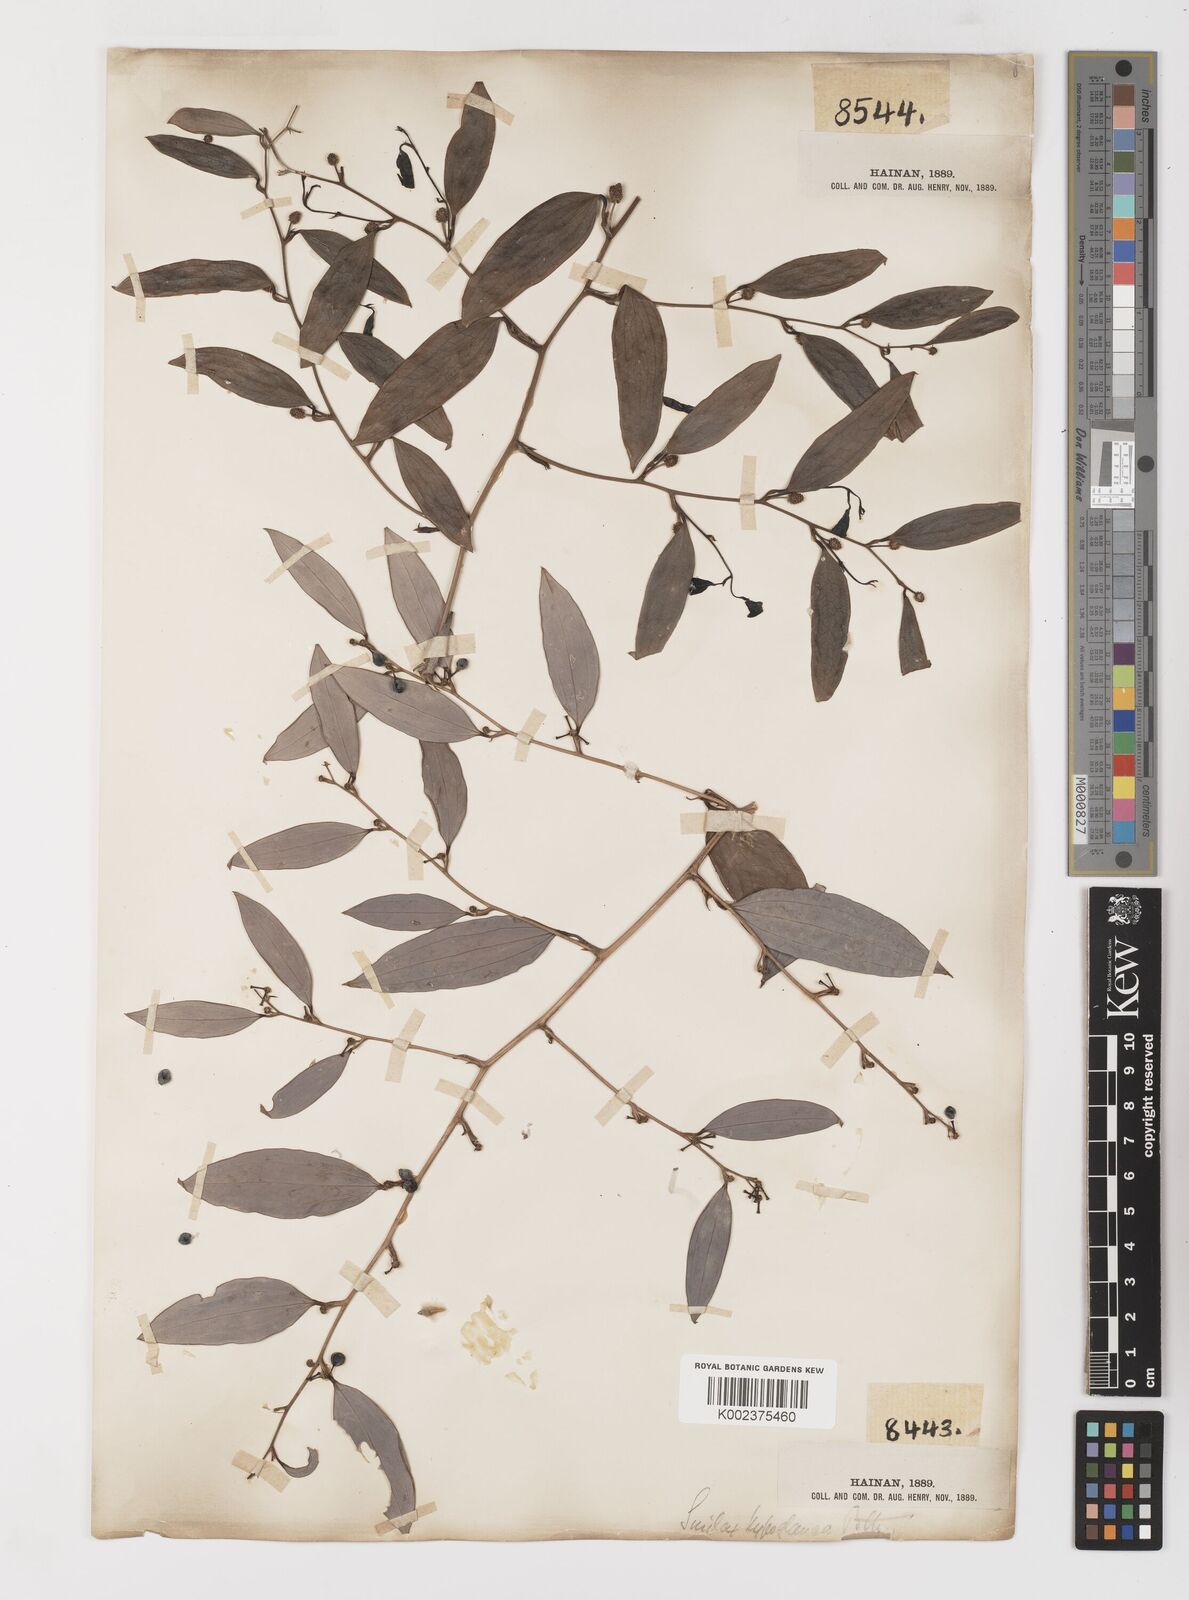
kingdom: Plantae
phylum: Tracheophyta
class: Liliopsida
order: Liliales
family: Smilacaceae
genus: Smilax
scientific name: Smilax hypoglauca
